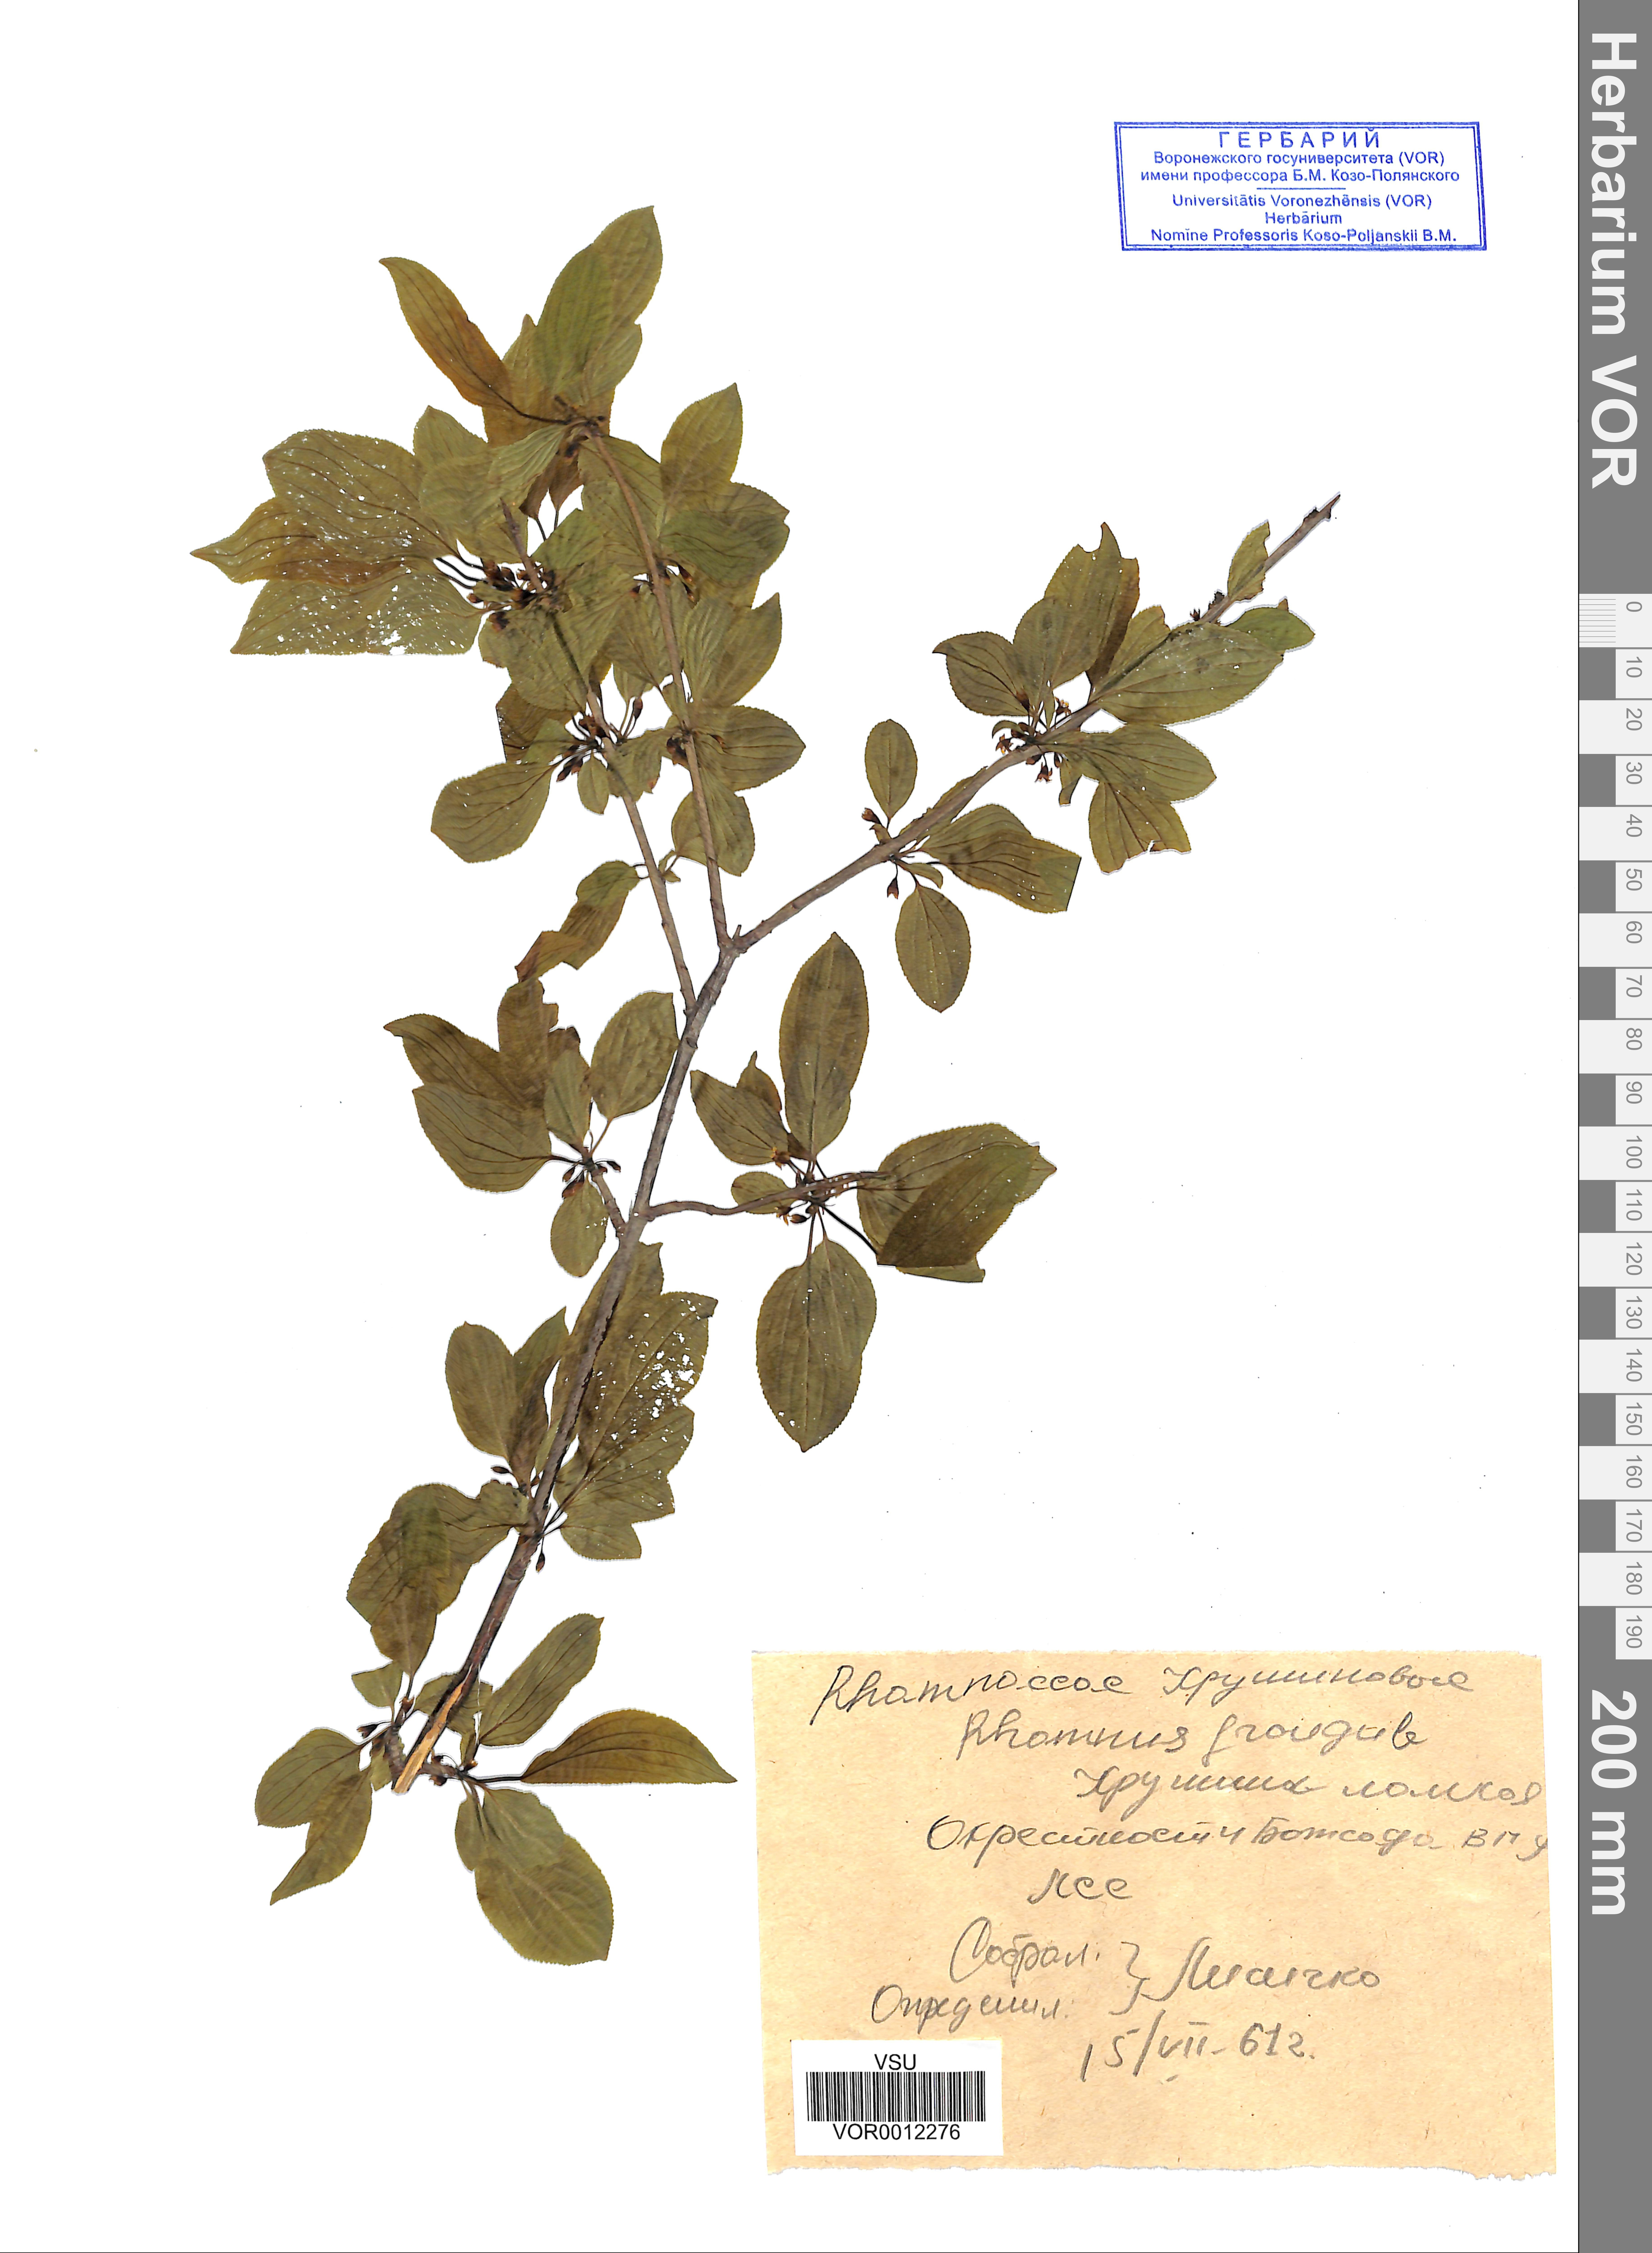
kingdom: Plantae
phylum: Tracheophyta
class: Magnoliopsida
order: Rosales
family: Rhamnaceae
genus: Frangula
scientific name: Frangula alnus
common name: Alder buckthorn
